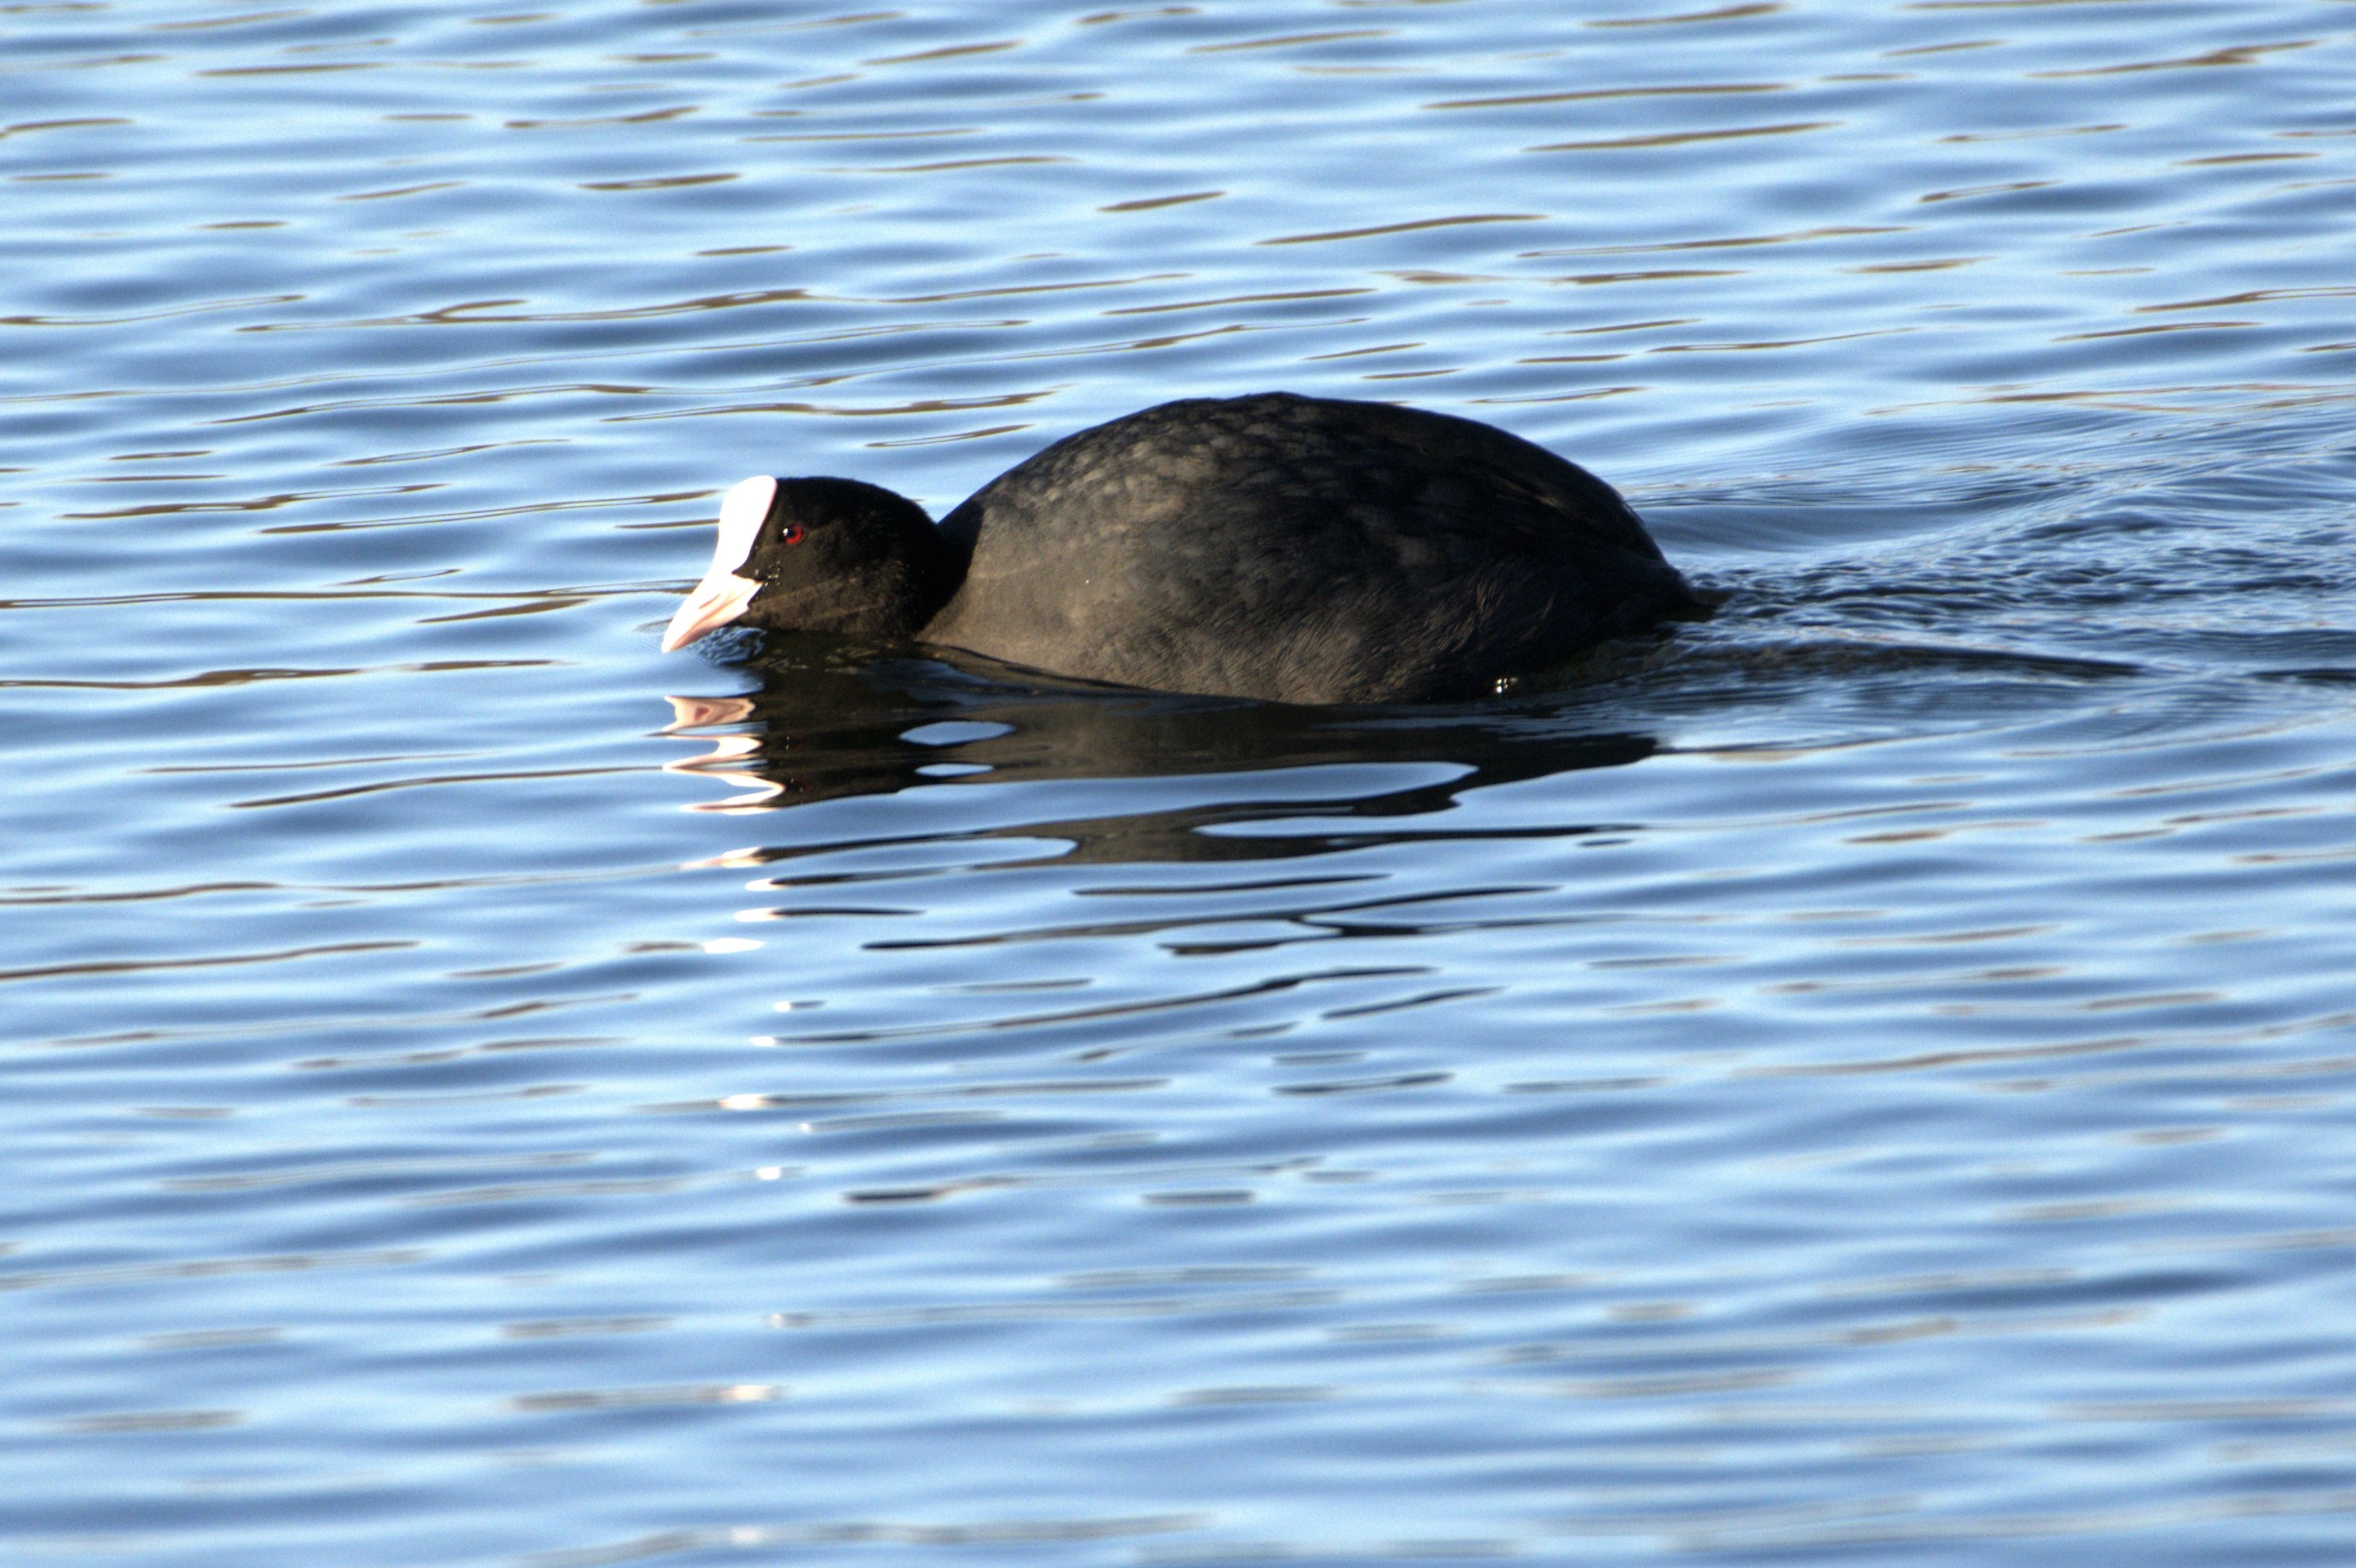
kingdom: Animalia
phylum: Chordata
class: Aves
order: Gruiformes
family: Rallidae
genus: Fulica
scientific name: Fulica atra
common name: Blishøne
